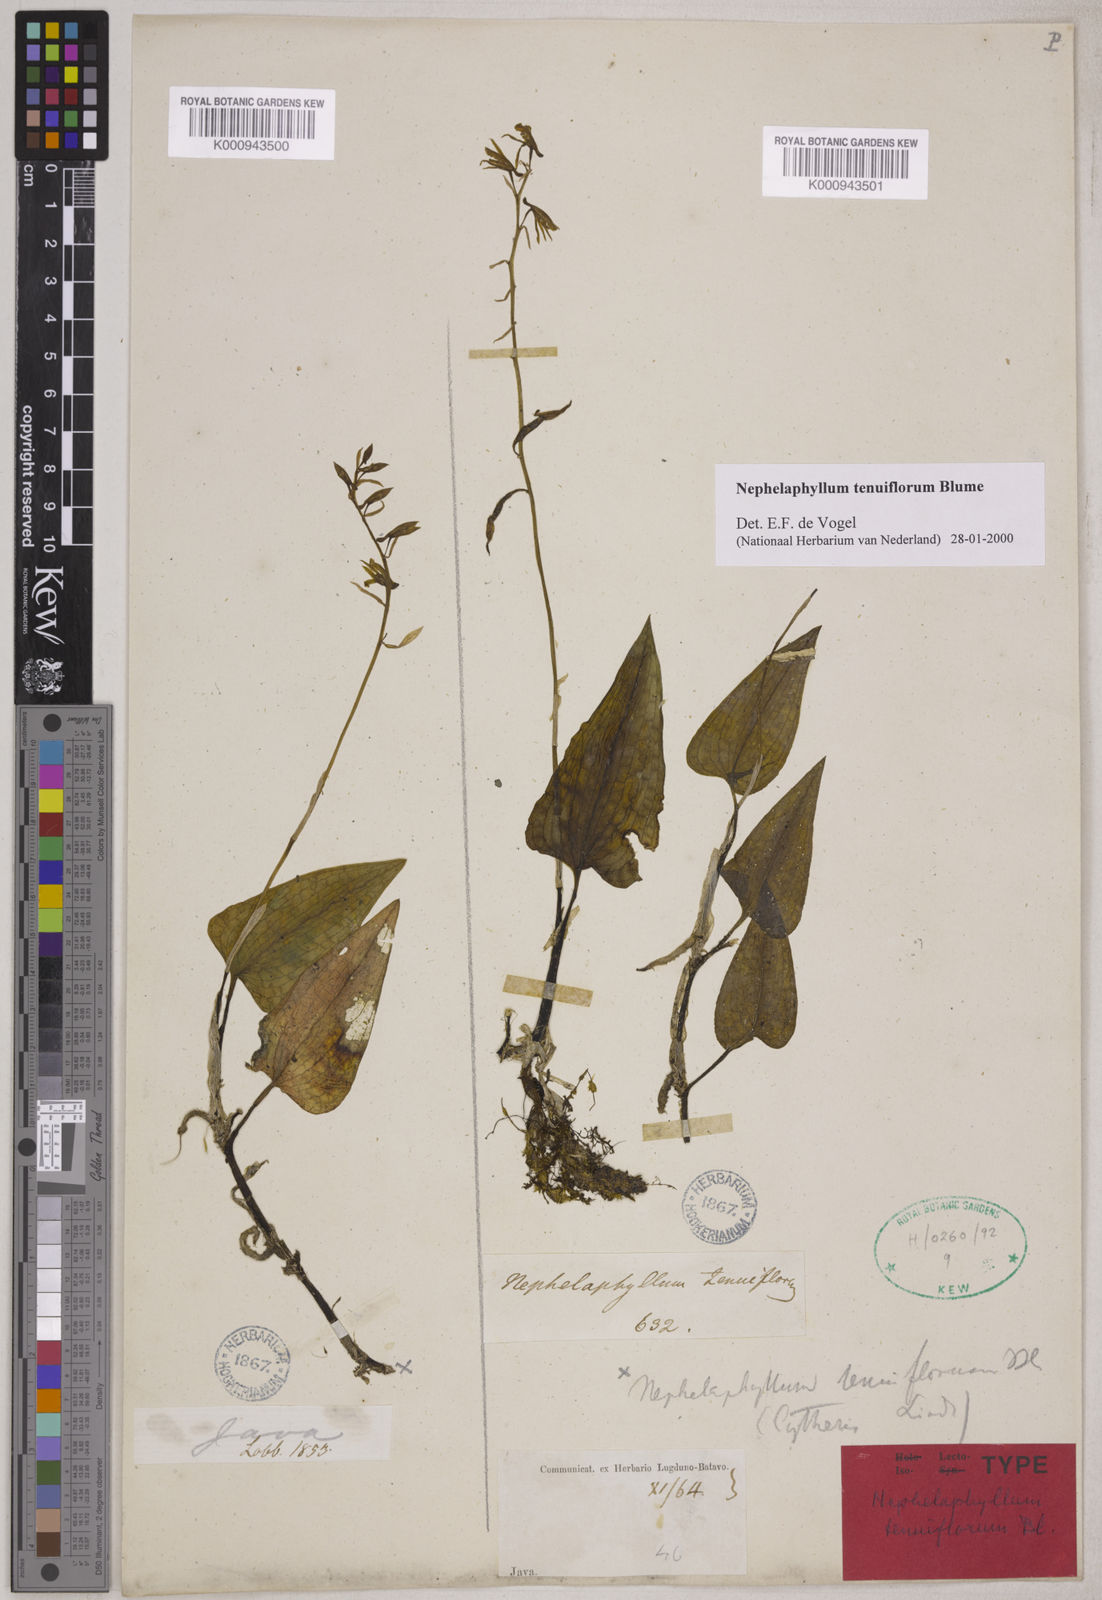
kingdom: Plantae
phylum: Tracheophyta
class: Liliopsida
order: Asparagales
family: Orchidaceae
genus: Nephelaphyllum
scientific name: Nephelaphyllum tenuiflorum
